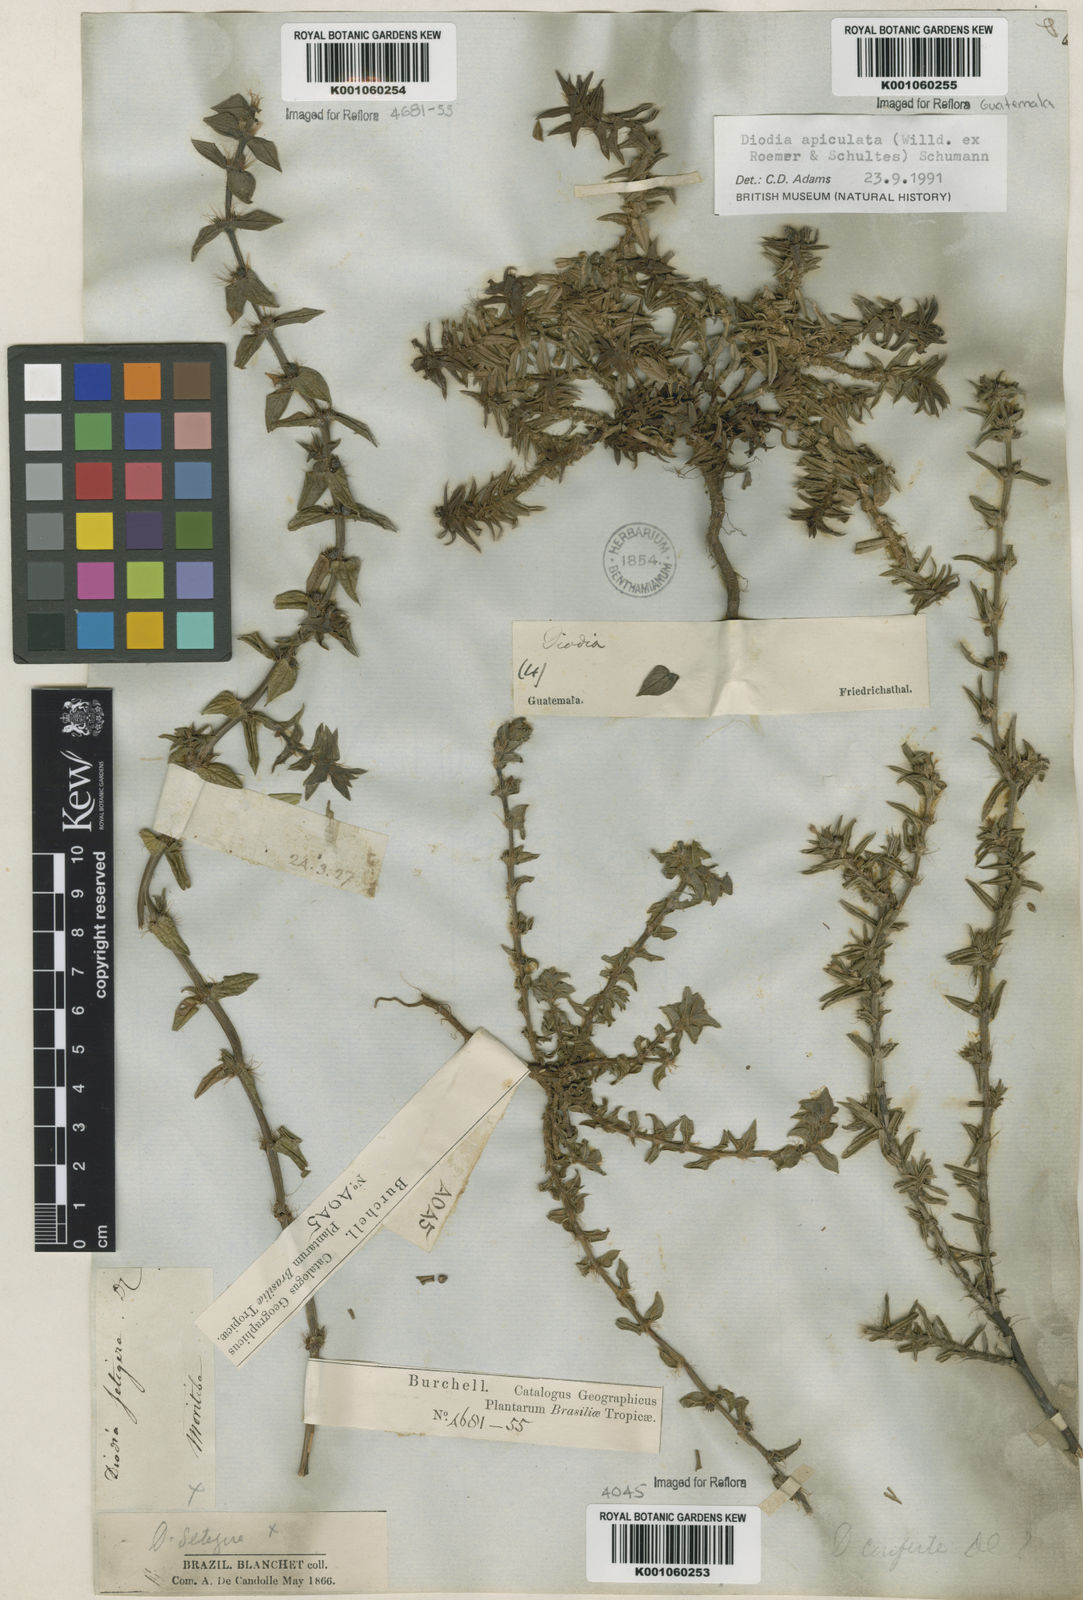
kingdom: Plantae
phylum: Tracheophyta
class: Magnoliopsida
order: Gentianales
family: Rubiaceae
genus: Hexasepalum
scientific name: Hexasepalum apiculatum
